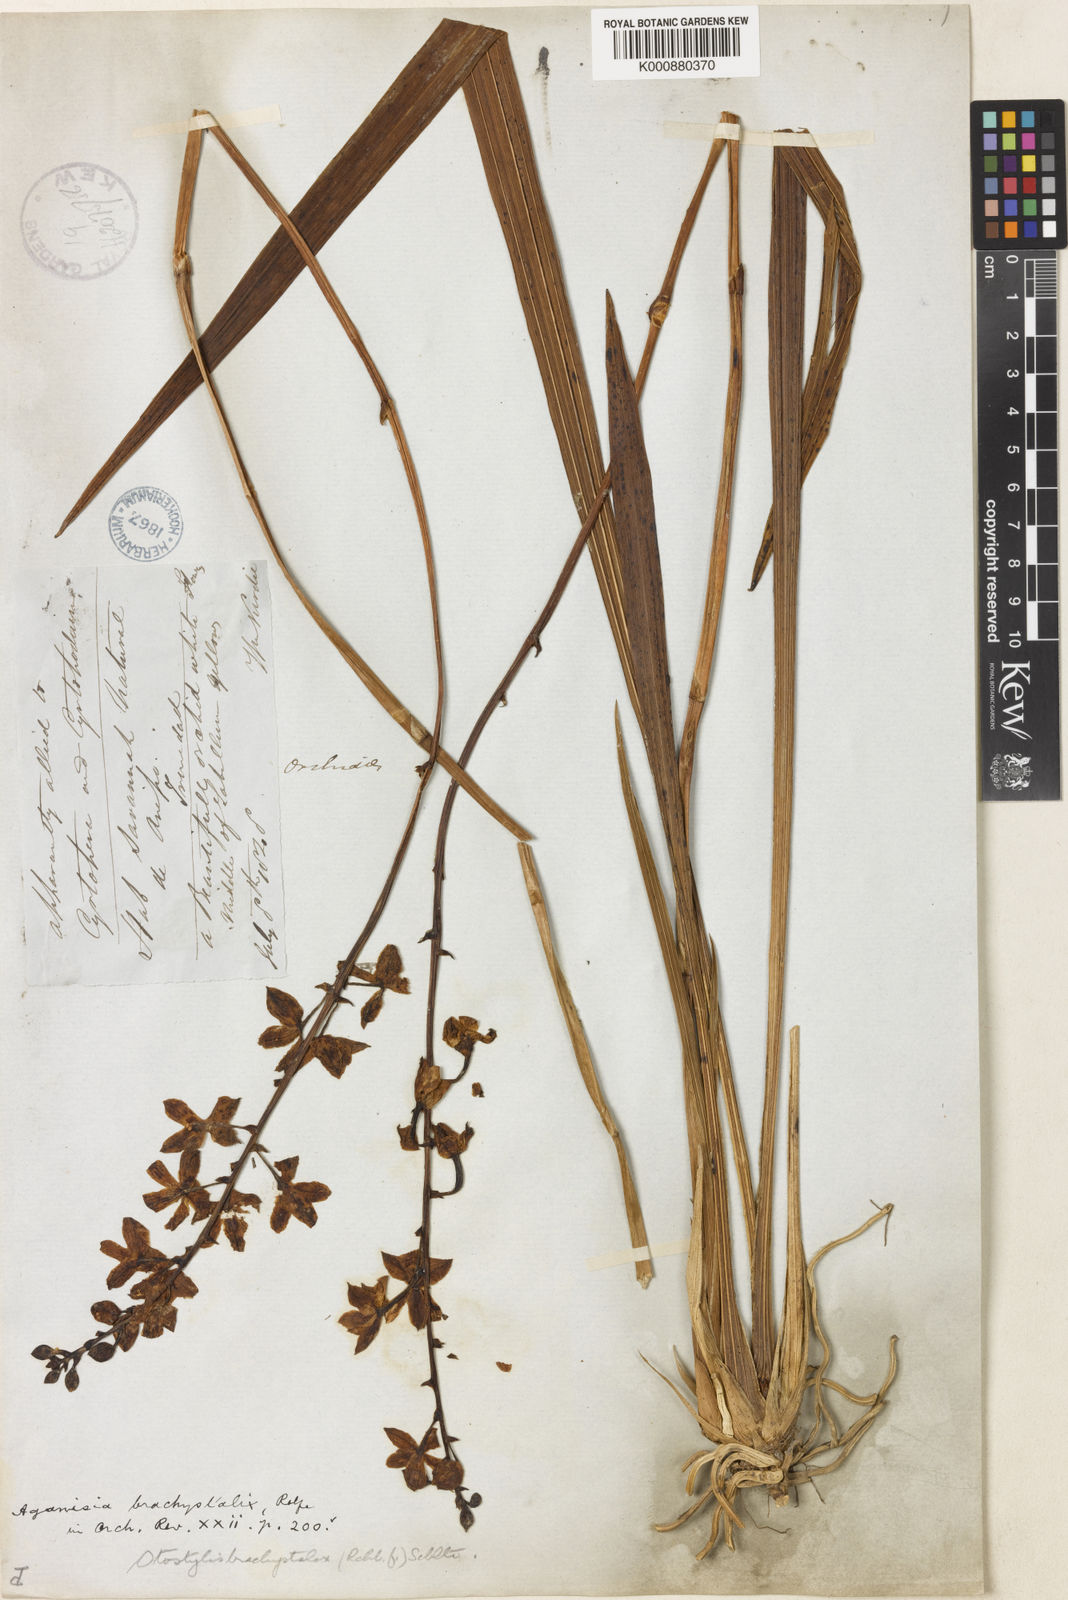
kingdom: Plantae
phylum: Tracheophyta
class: Liliopsida
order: Asparagales
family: Orchidaceae
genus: Otostylis
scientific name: Otostylis brachystalix
